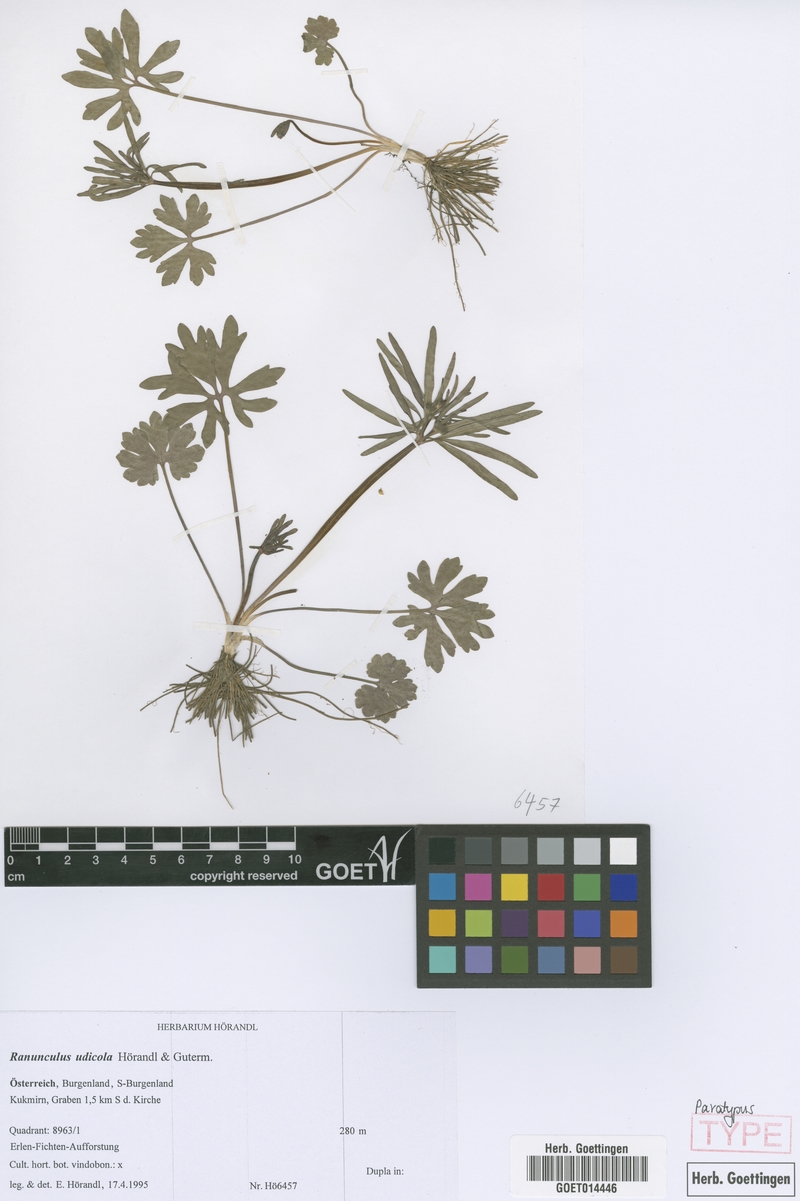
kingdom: Plantae
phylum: Tracheophyta
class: Magnoliopsida
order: Ranunculales
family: Ranunculaceae
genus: Ranunculus
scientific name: Ranunculus udicola
